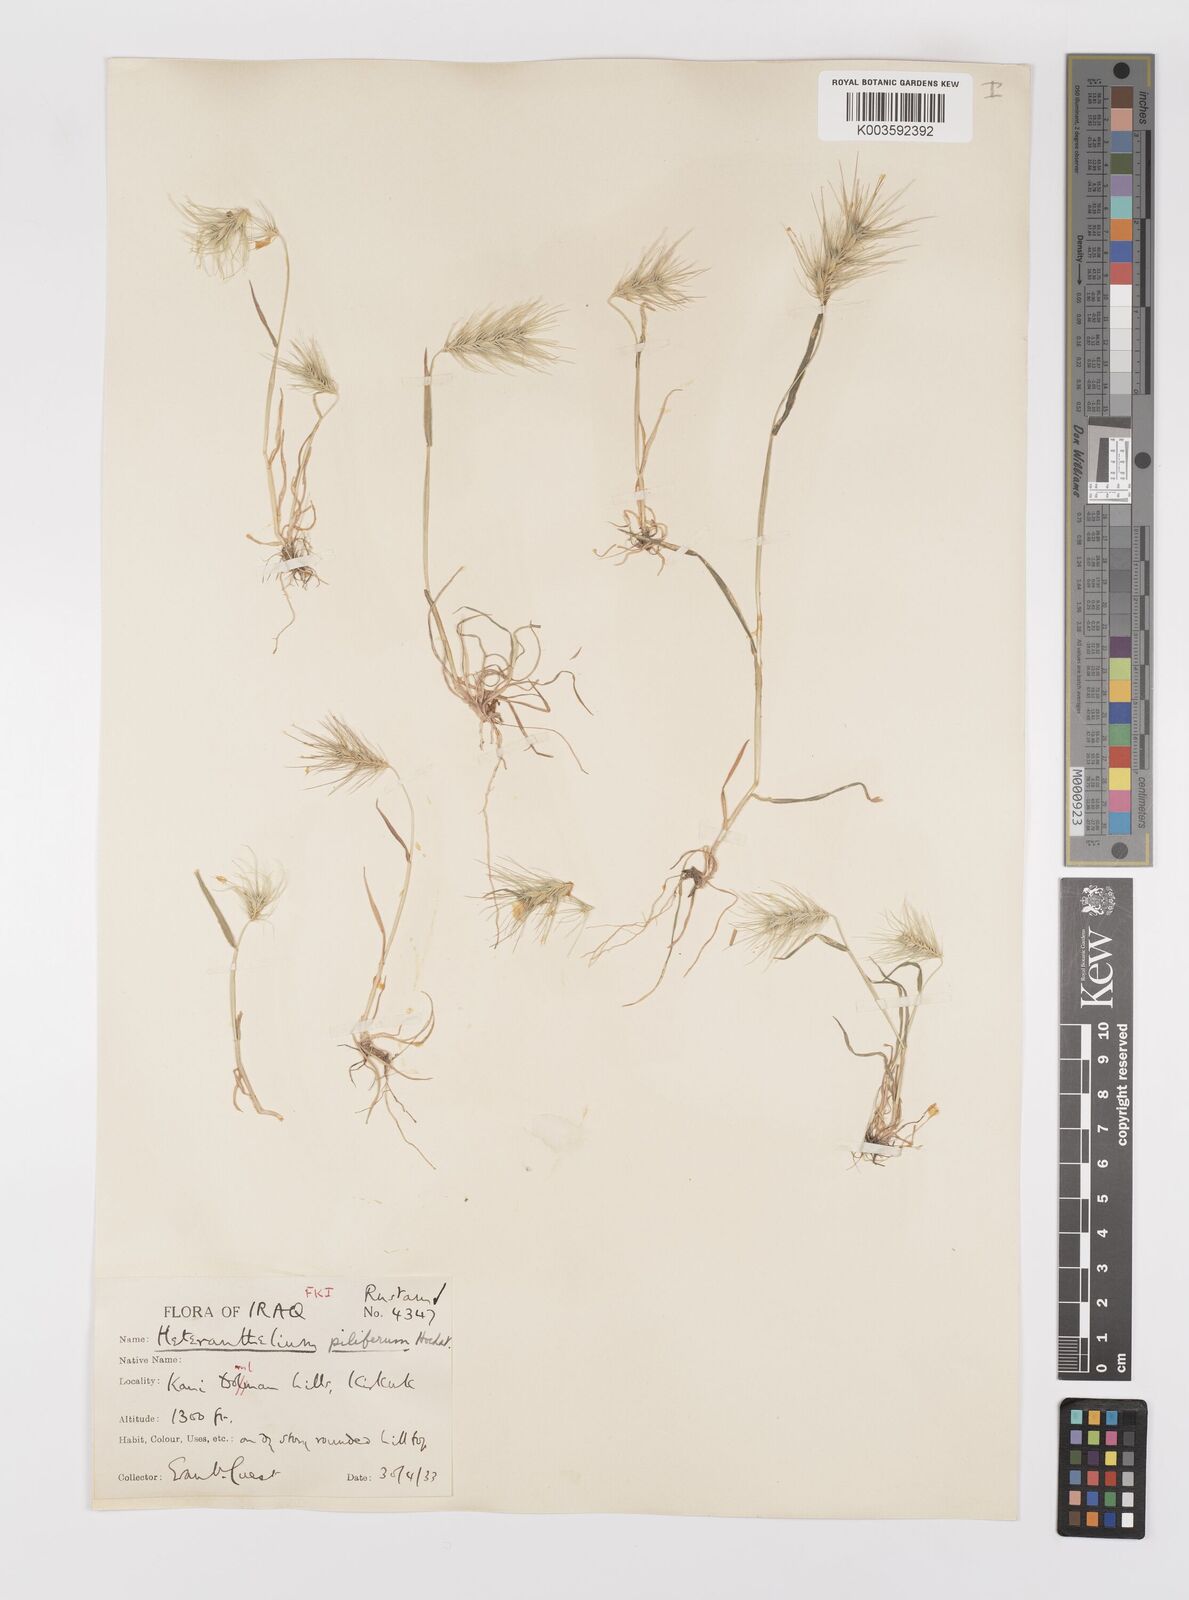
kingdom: Plantae
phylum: Tracheophyta
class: Liliopsida
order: Poales
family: Poaceae
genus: Heteranthelium
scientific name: Heteranthelium piliferum
